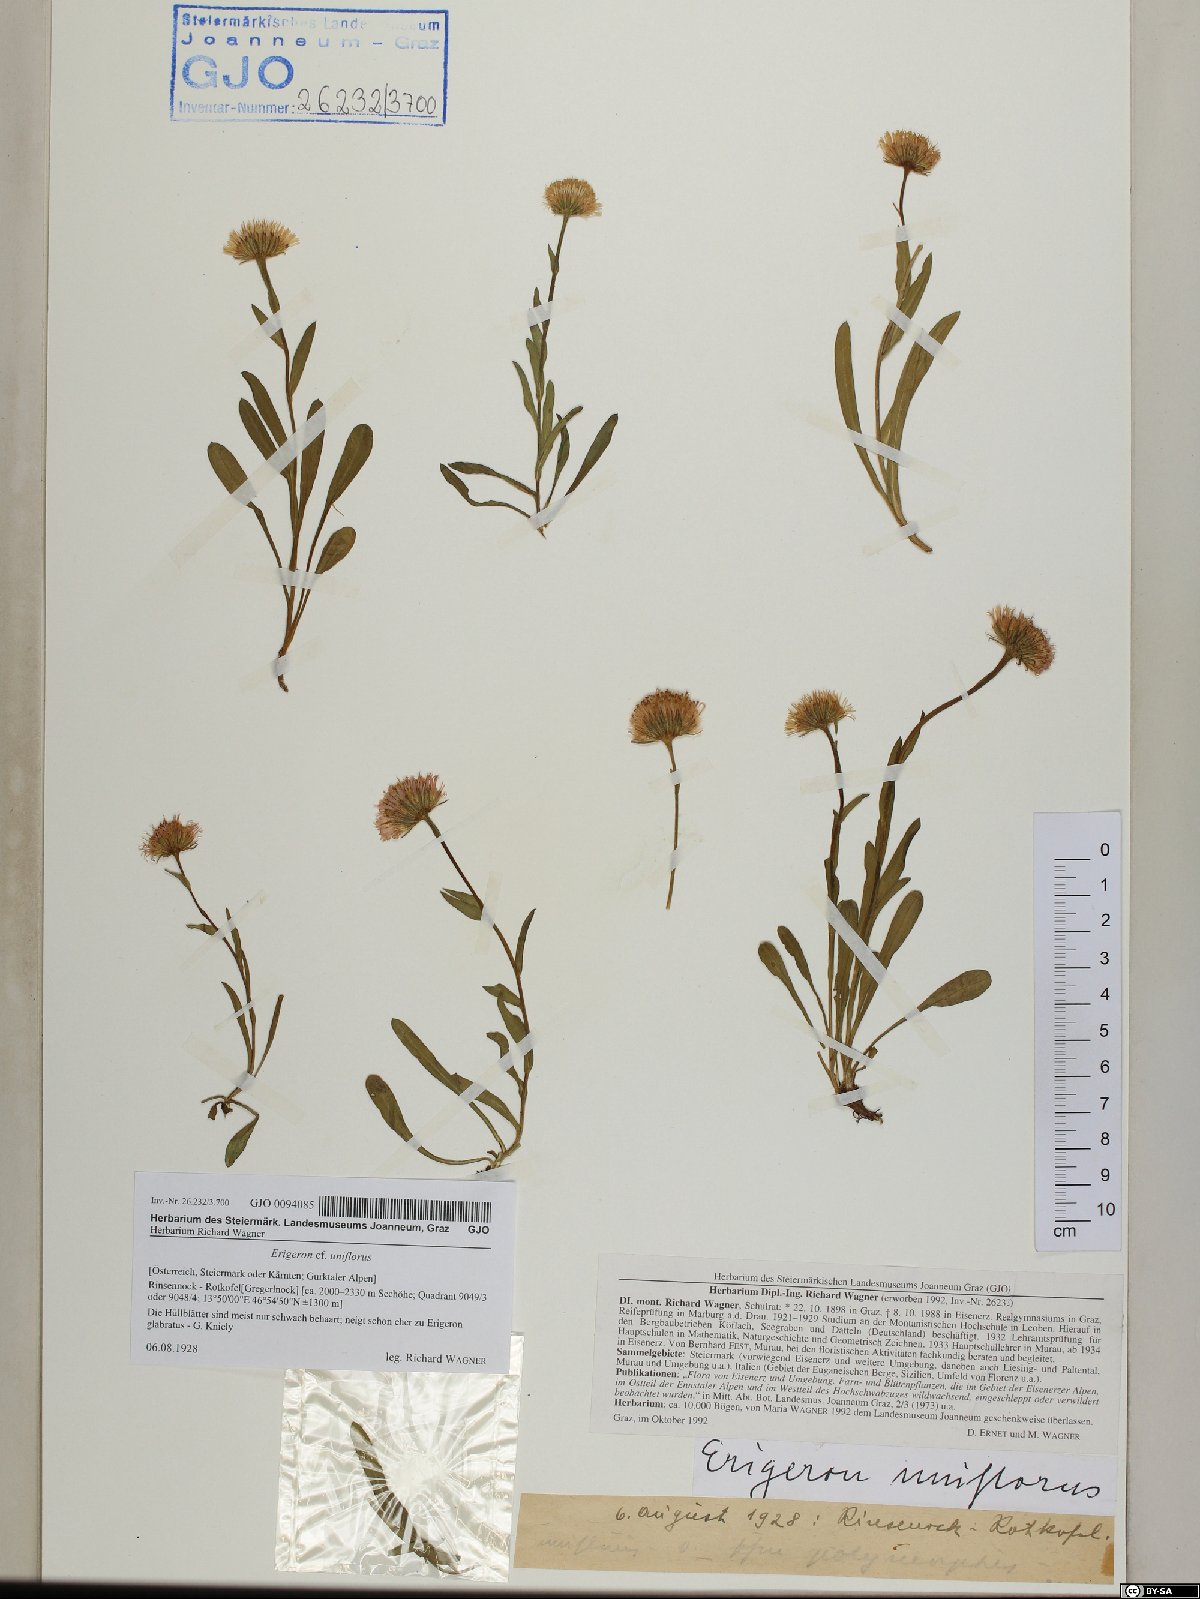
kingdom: Plantae
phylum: Tracheophyta
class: Magnoliopsida
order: Asterales
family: Asteraceae
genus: Erigeron
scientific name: Erigeron uniflorus
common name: Northern daisy
